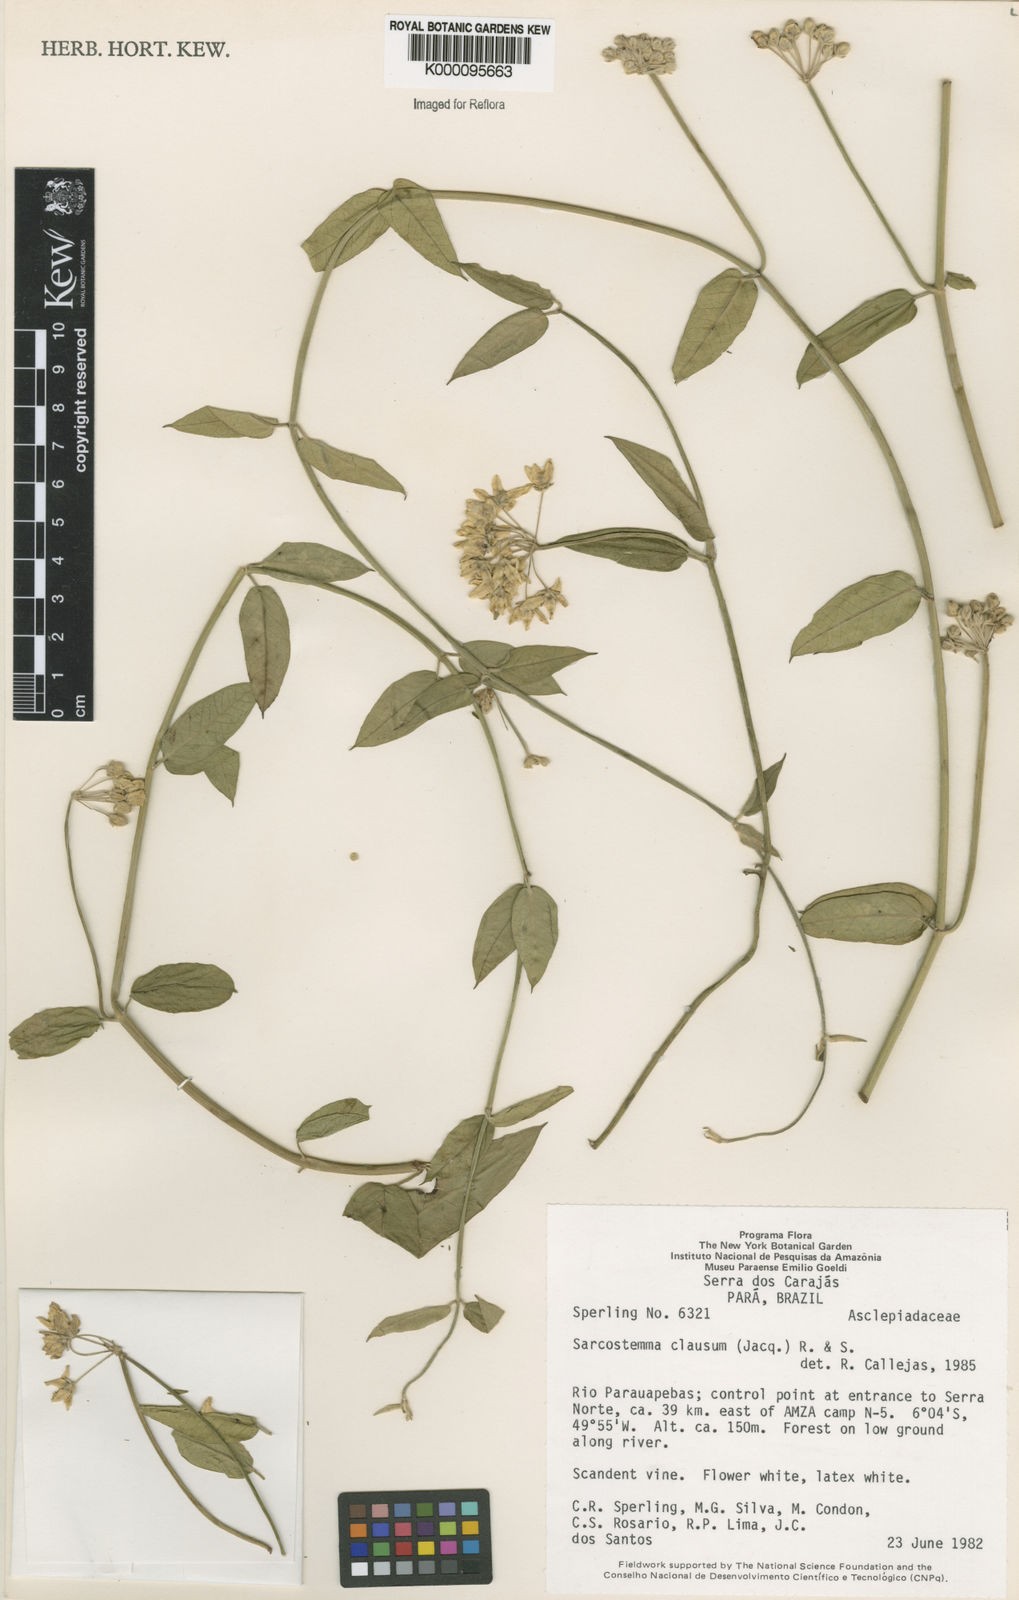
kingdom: Plantae
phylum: Tracheophyta
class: Magnoliopsida
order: Gentianales
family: Apocynaceae
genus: Funastrum
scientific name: Funastrum clausum
